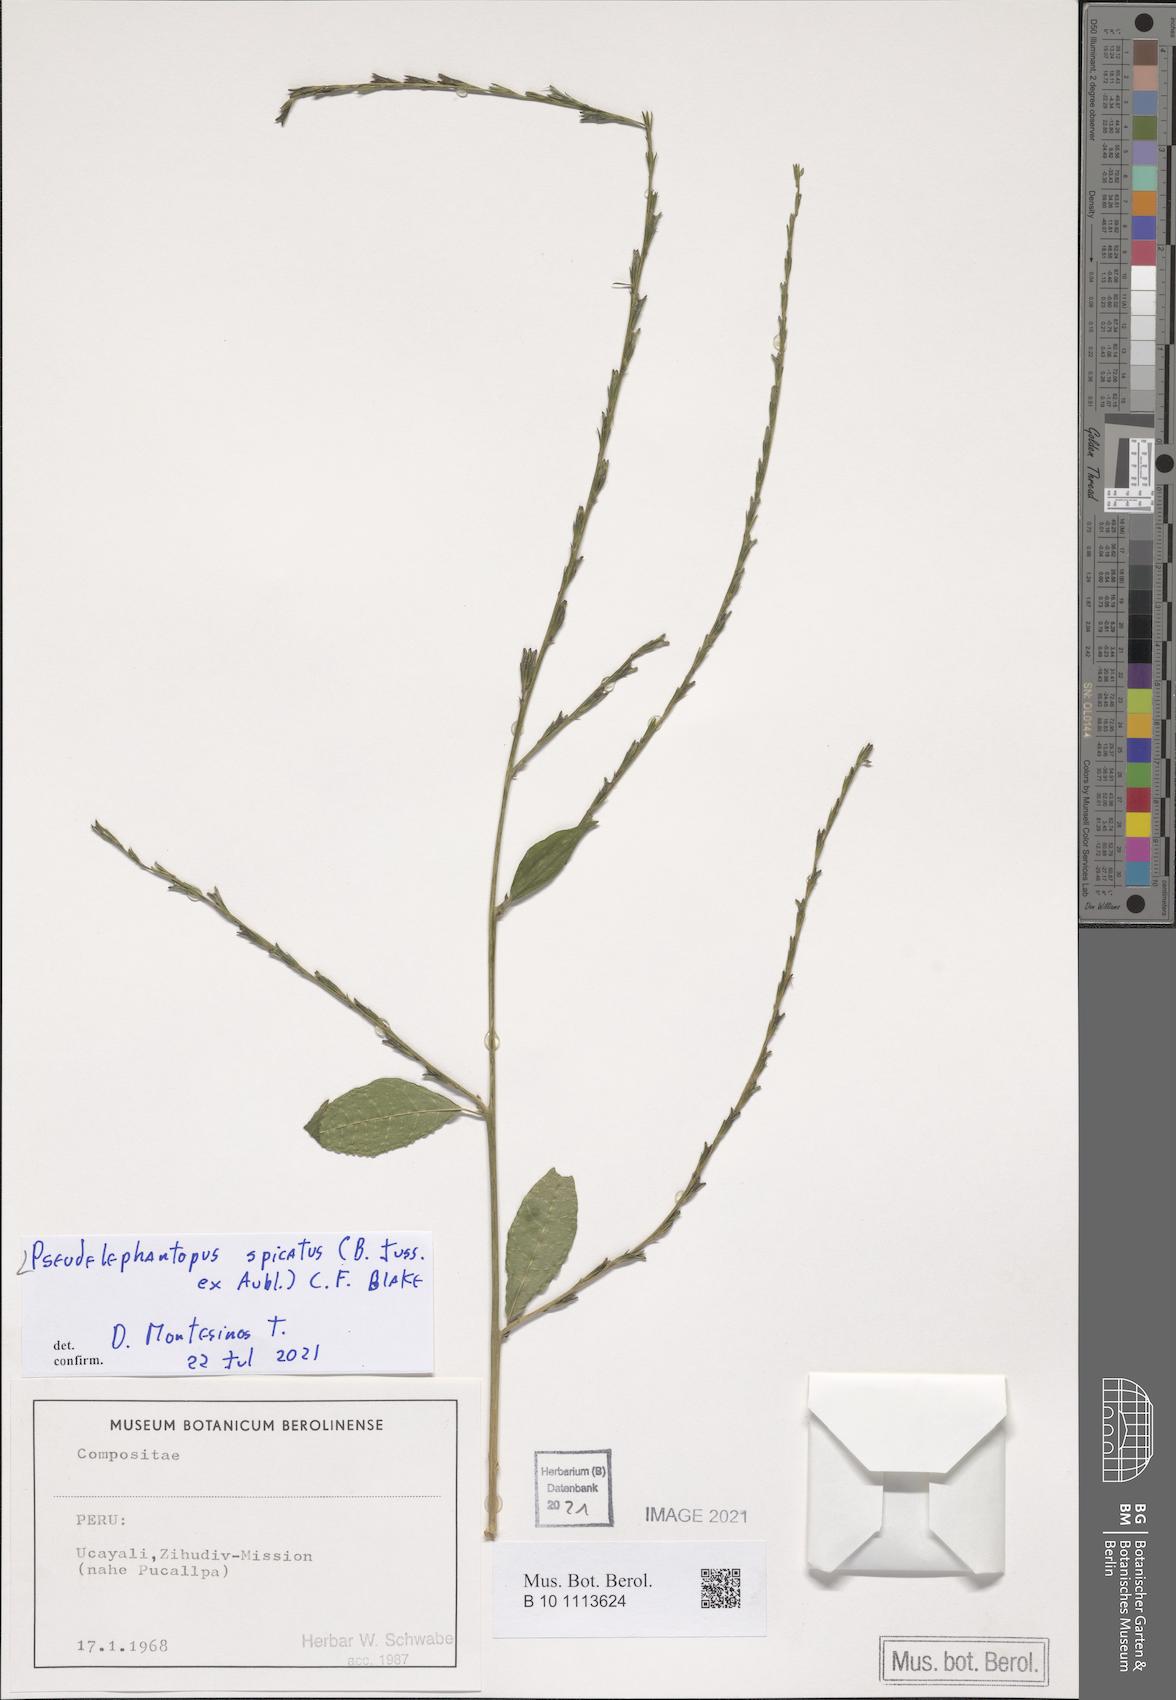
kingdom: Plantae
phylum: Tracheophyta
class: Magnoliopsida
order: Asterales
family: Asteraceae
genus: Pseudelephantopus
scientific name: Pseudelephantopus spicatus
